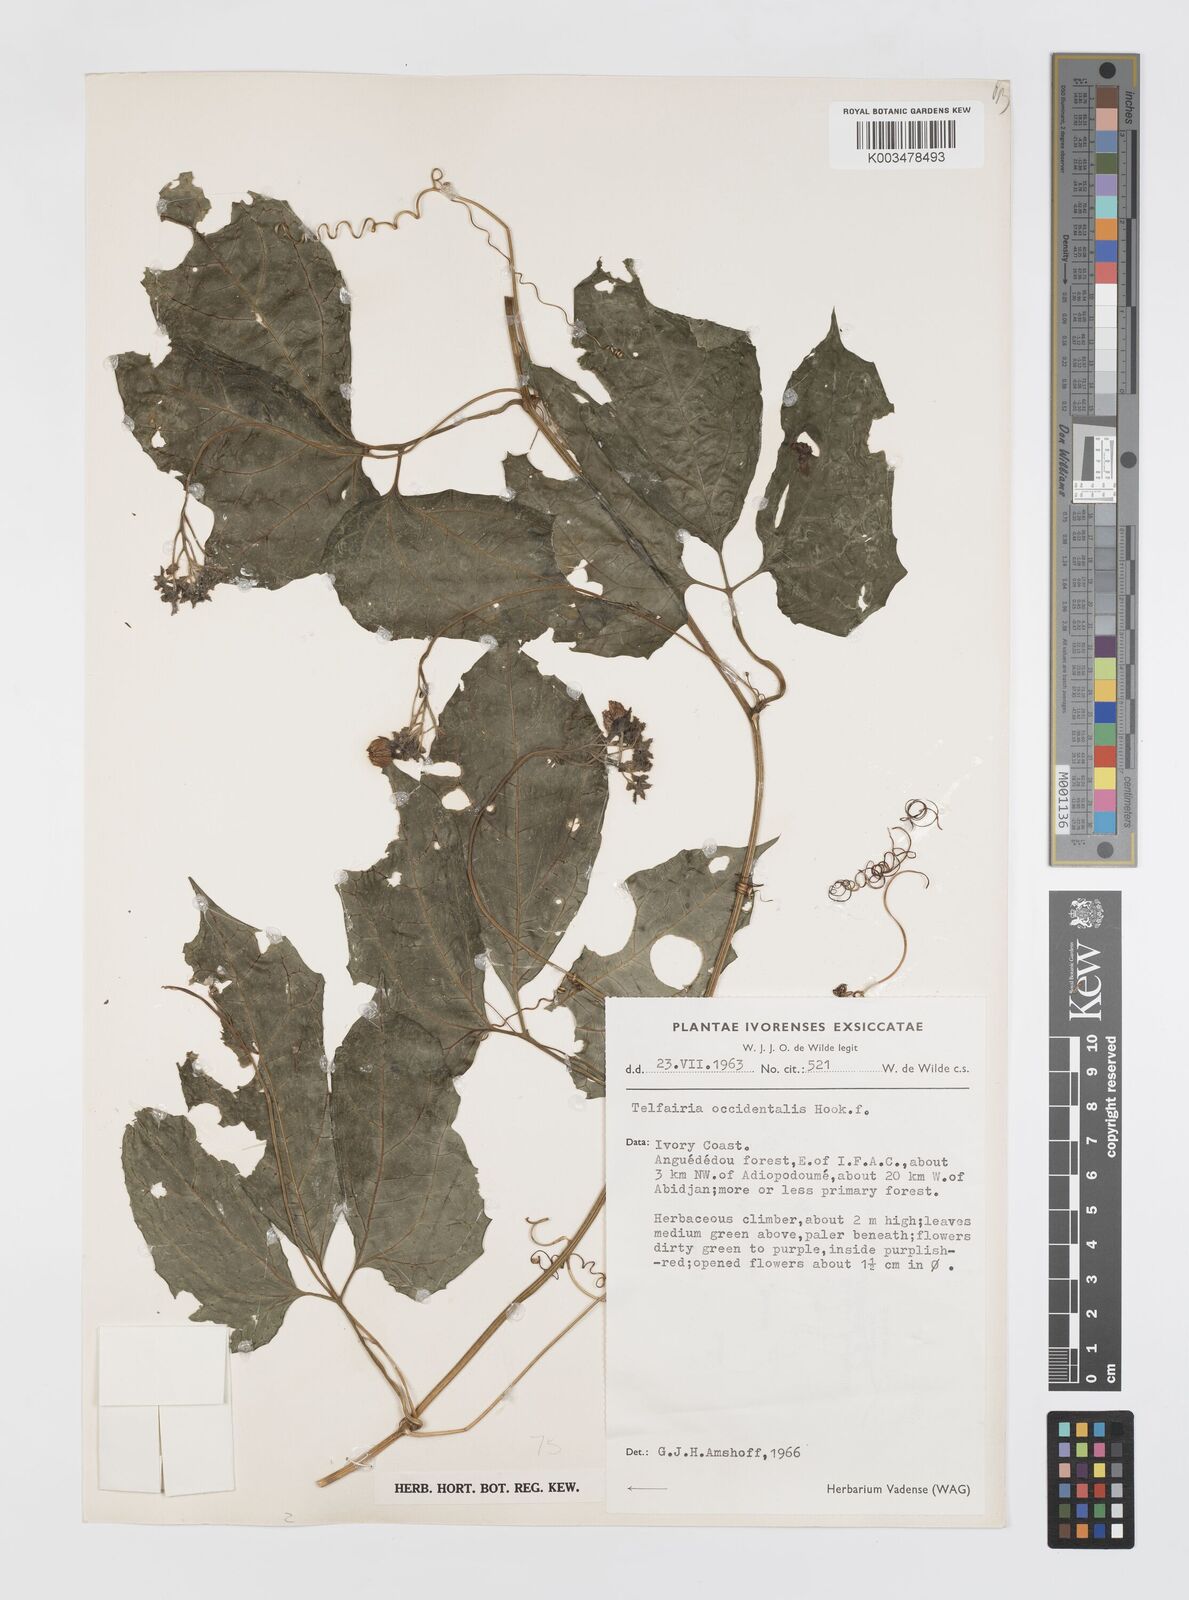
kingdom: Plantae
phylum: Tracheophyta
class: Magnoliopsida
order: Cucurbitales
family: Cucurbitaceae
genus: Telfairia
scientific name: Telfairia occidentalis
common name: Oysternut
